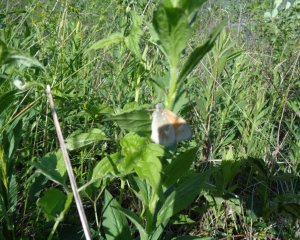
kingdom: Animalia
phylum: Arthropoda
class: Insecta
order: Lepidoptera
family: Nymphalidae
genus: Coenonympha
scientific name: Coenonympha tullia
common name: Large Heath
